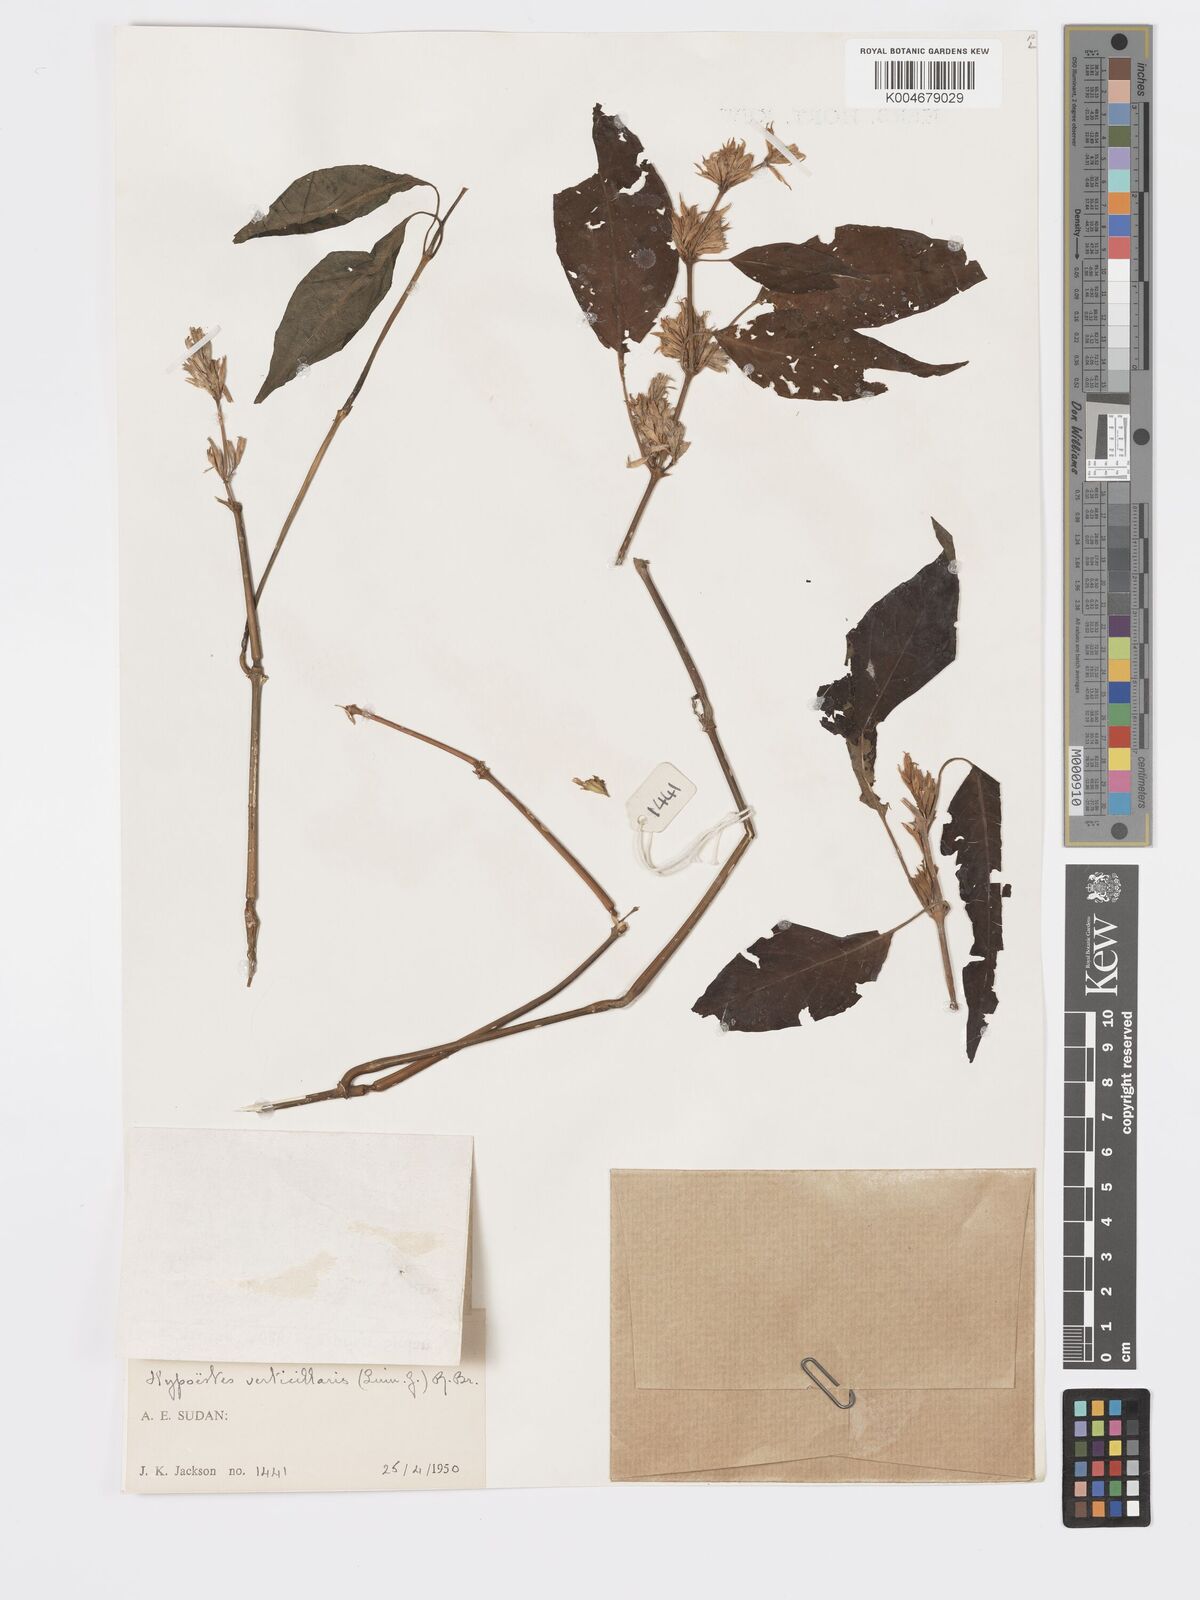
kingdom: Plantae
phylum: Tracheophyta
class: Magnoliopsida
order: Lamiales
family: Acanthaceae
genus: Hypoestes
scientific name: Hypoestes forskaolii
